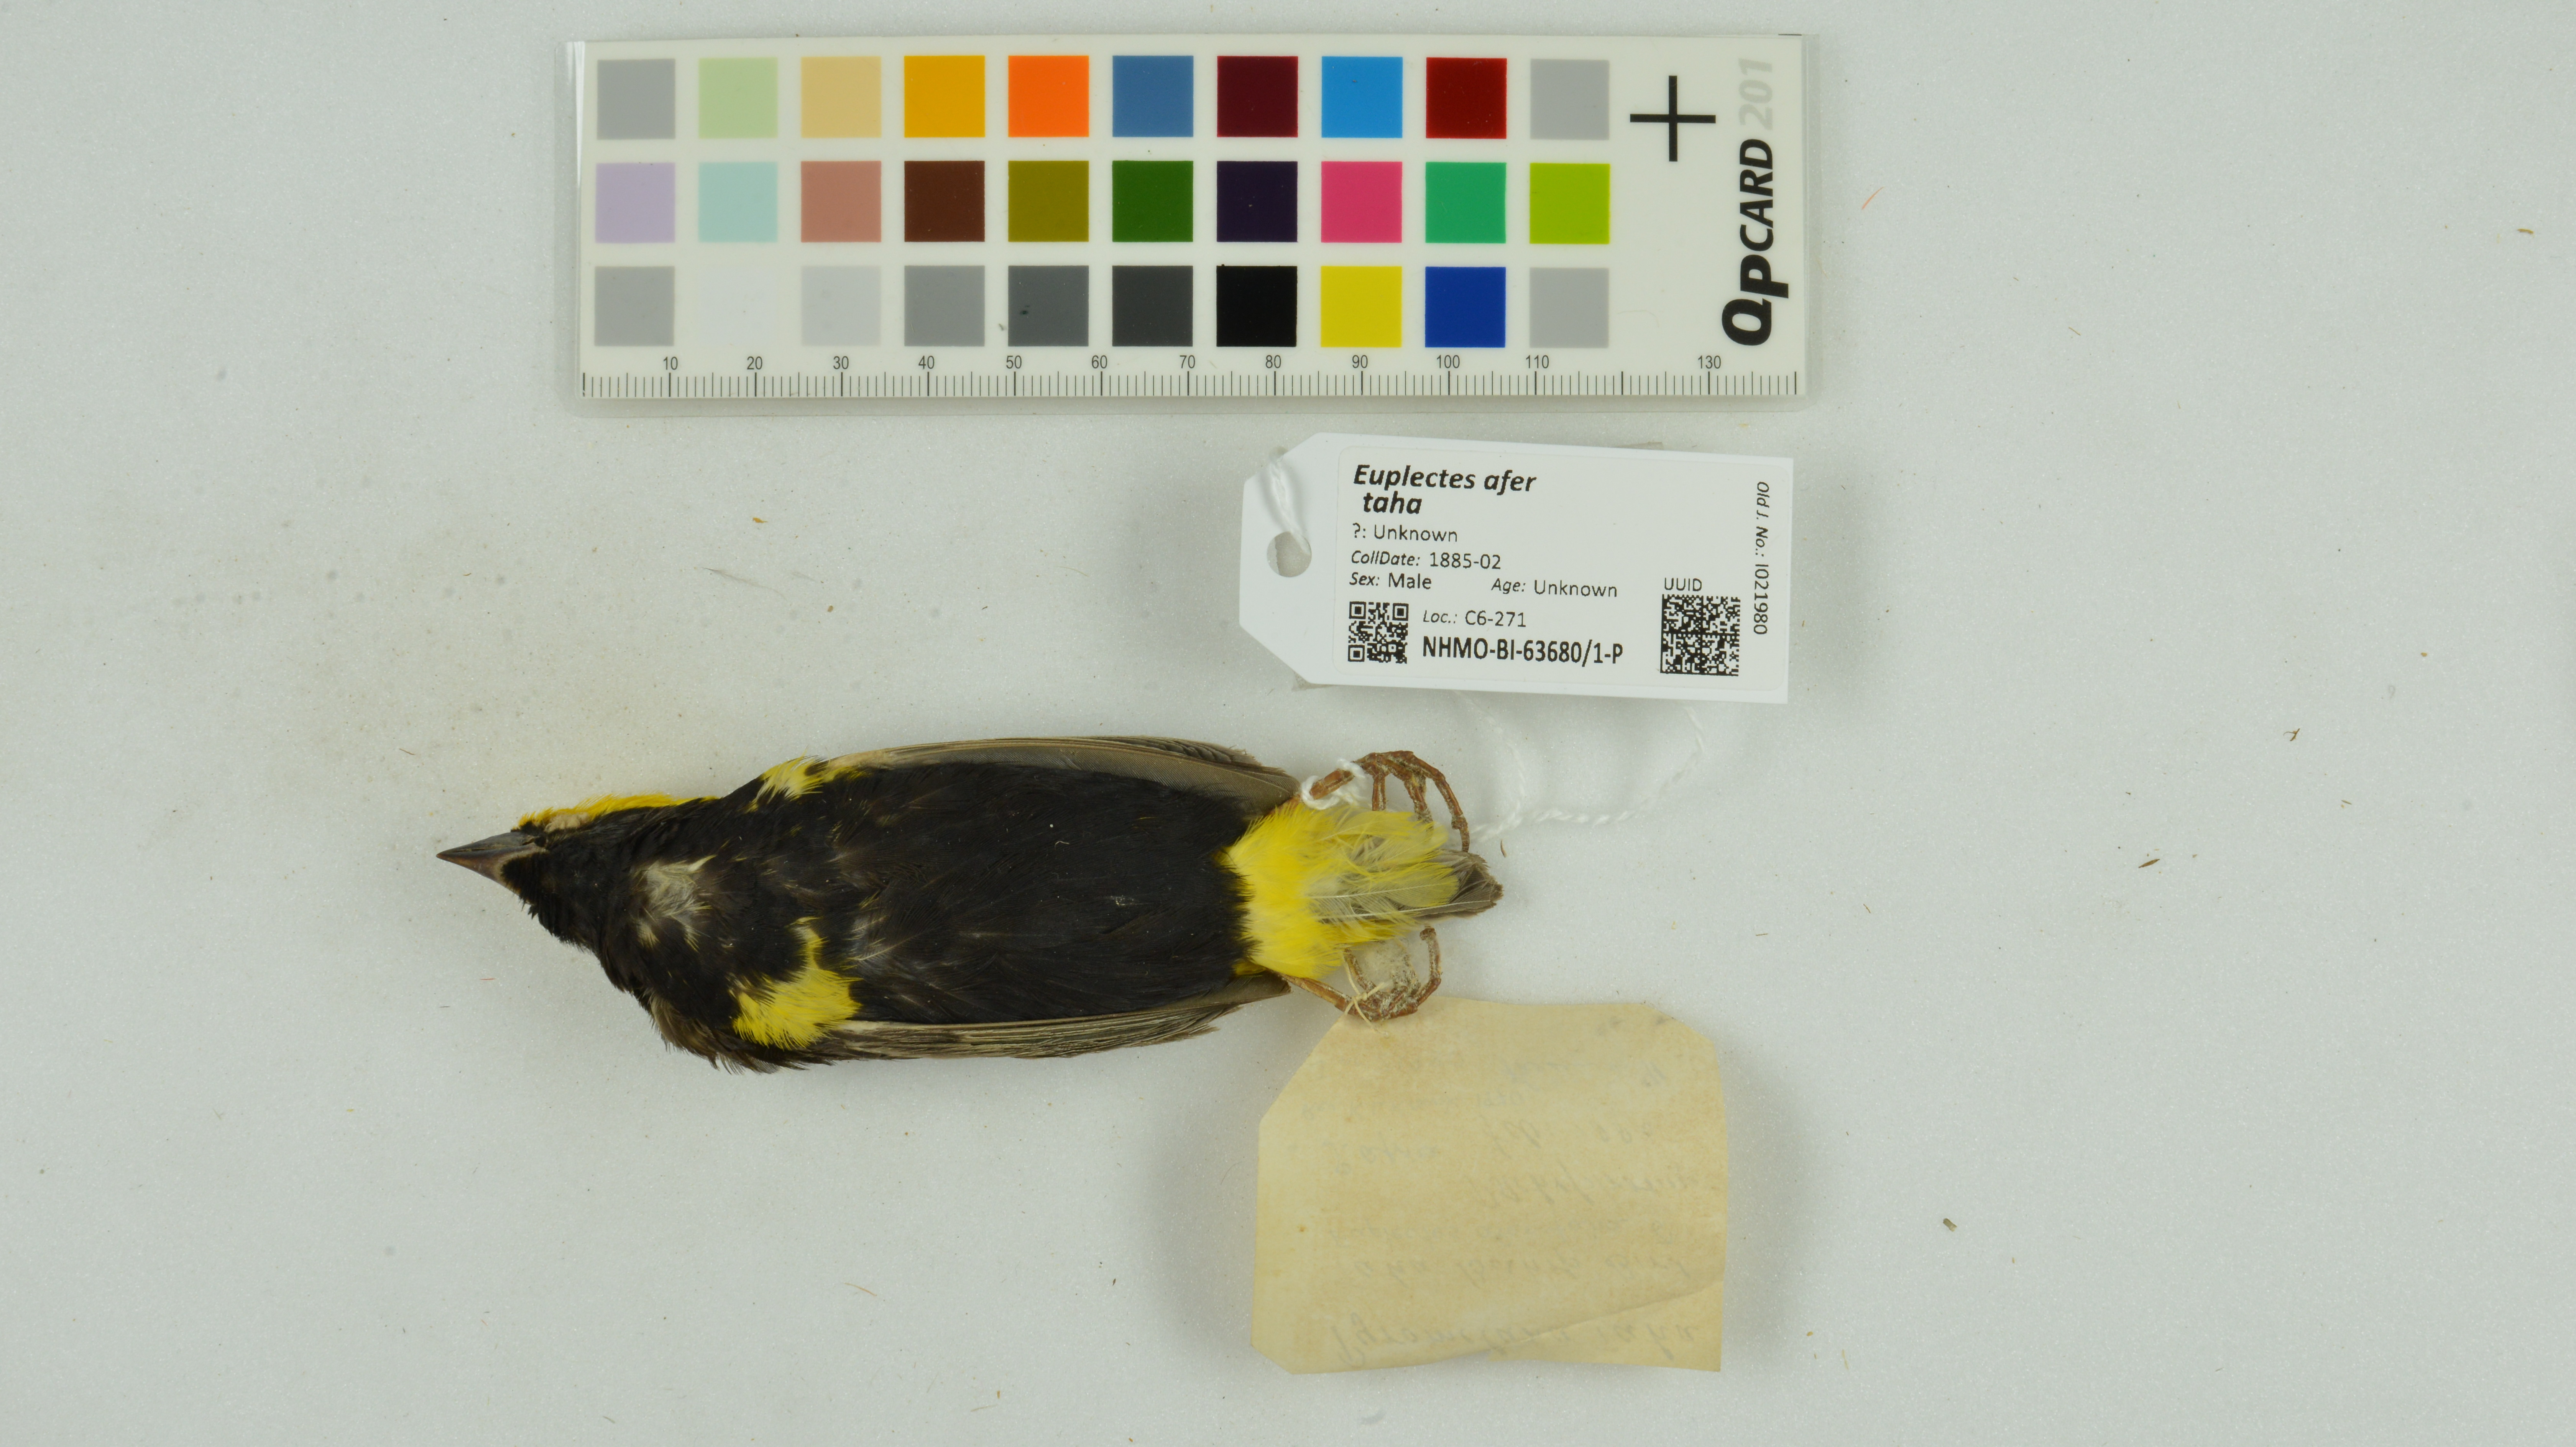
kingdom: Animalia
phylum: Chordata
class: Aves
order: Passeriformes
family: Ploceidae
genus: Euplectes
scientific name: Euplectes afer
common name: Yellow-crowned bishop
